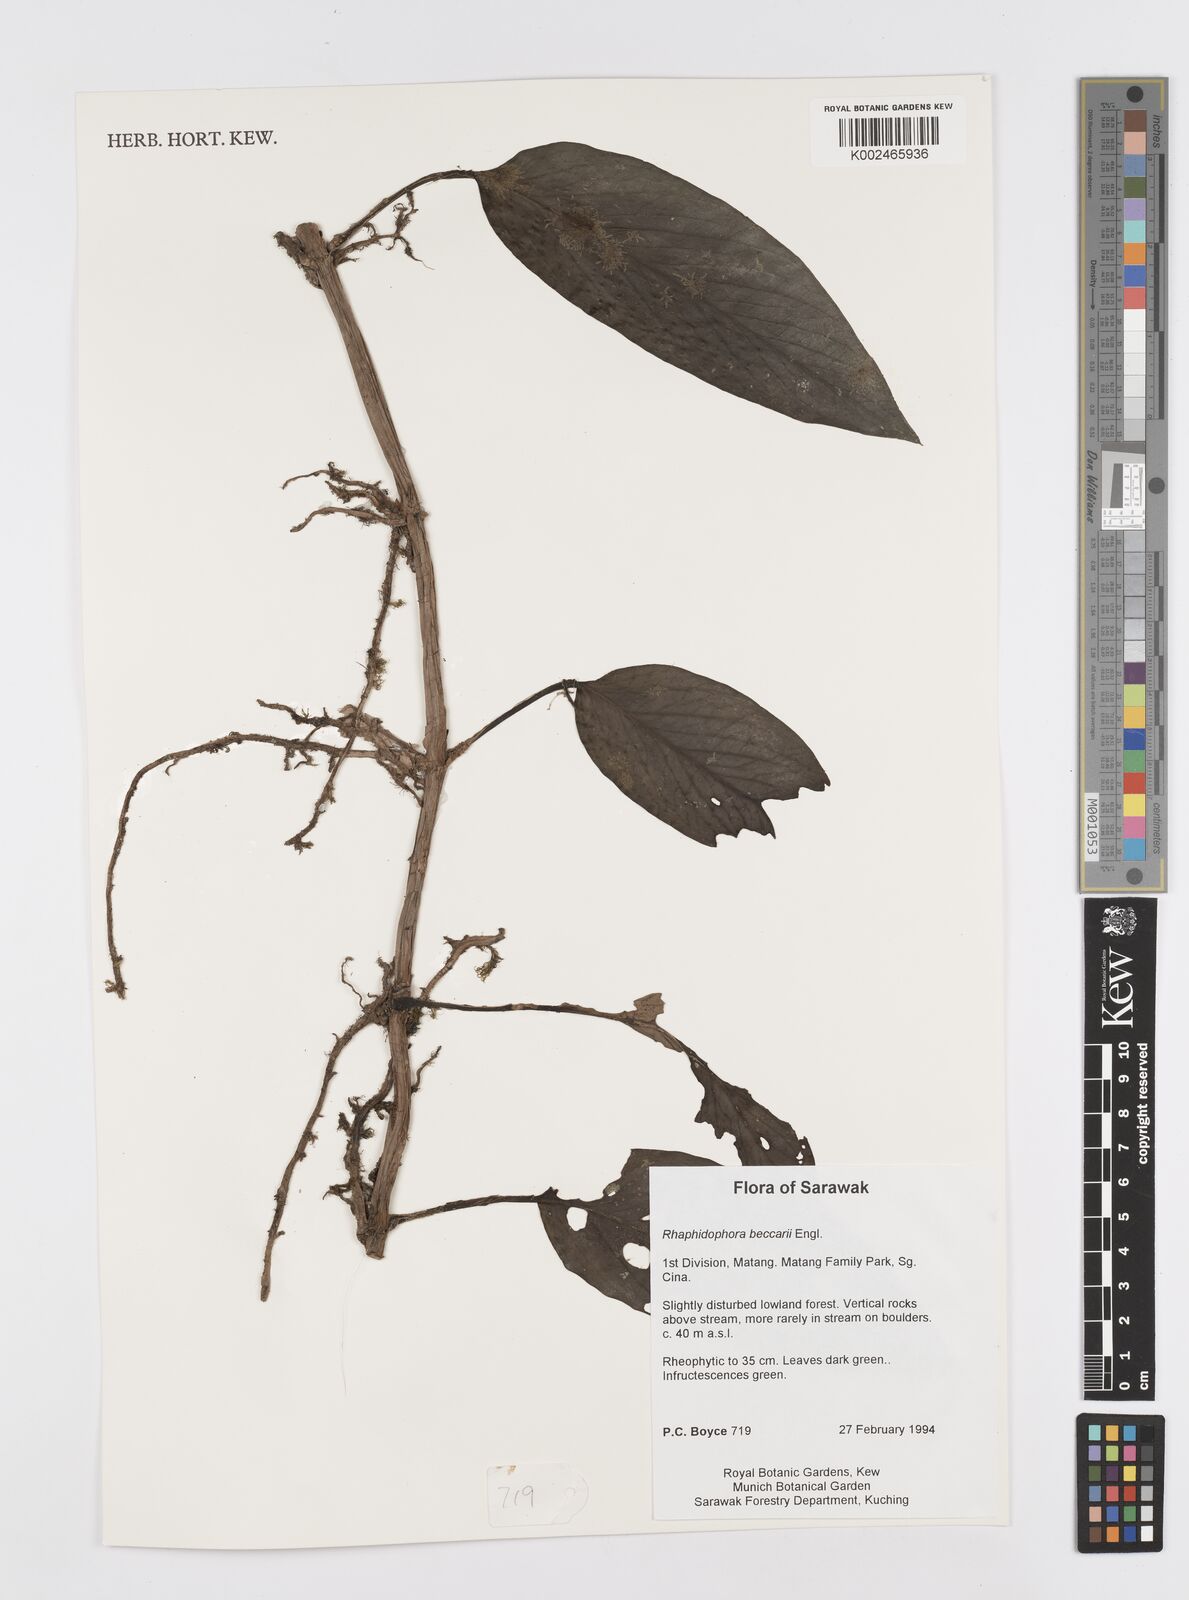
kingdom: Plantae
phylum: Tracheophyta
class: Liliopsida
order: Alismatales
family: Araceae
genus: Rhaphidophora
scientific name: Rhaphidophora beccarii
